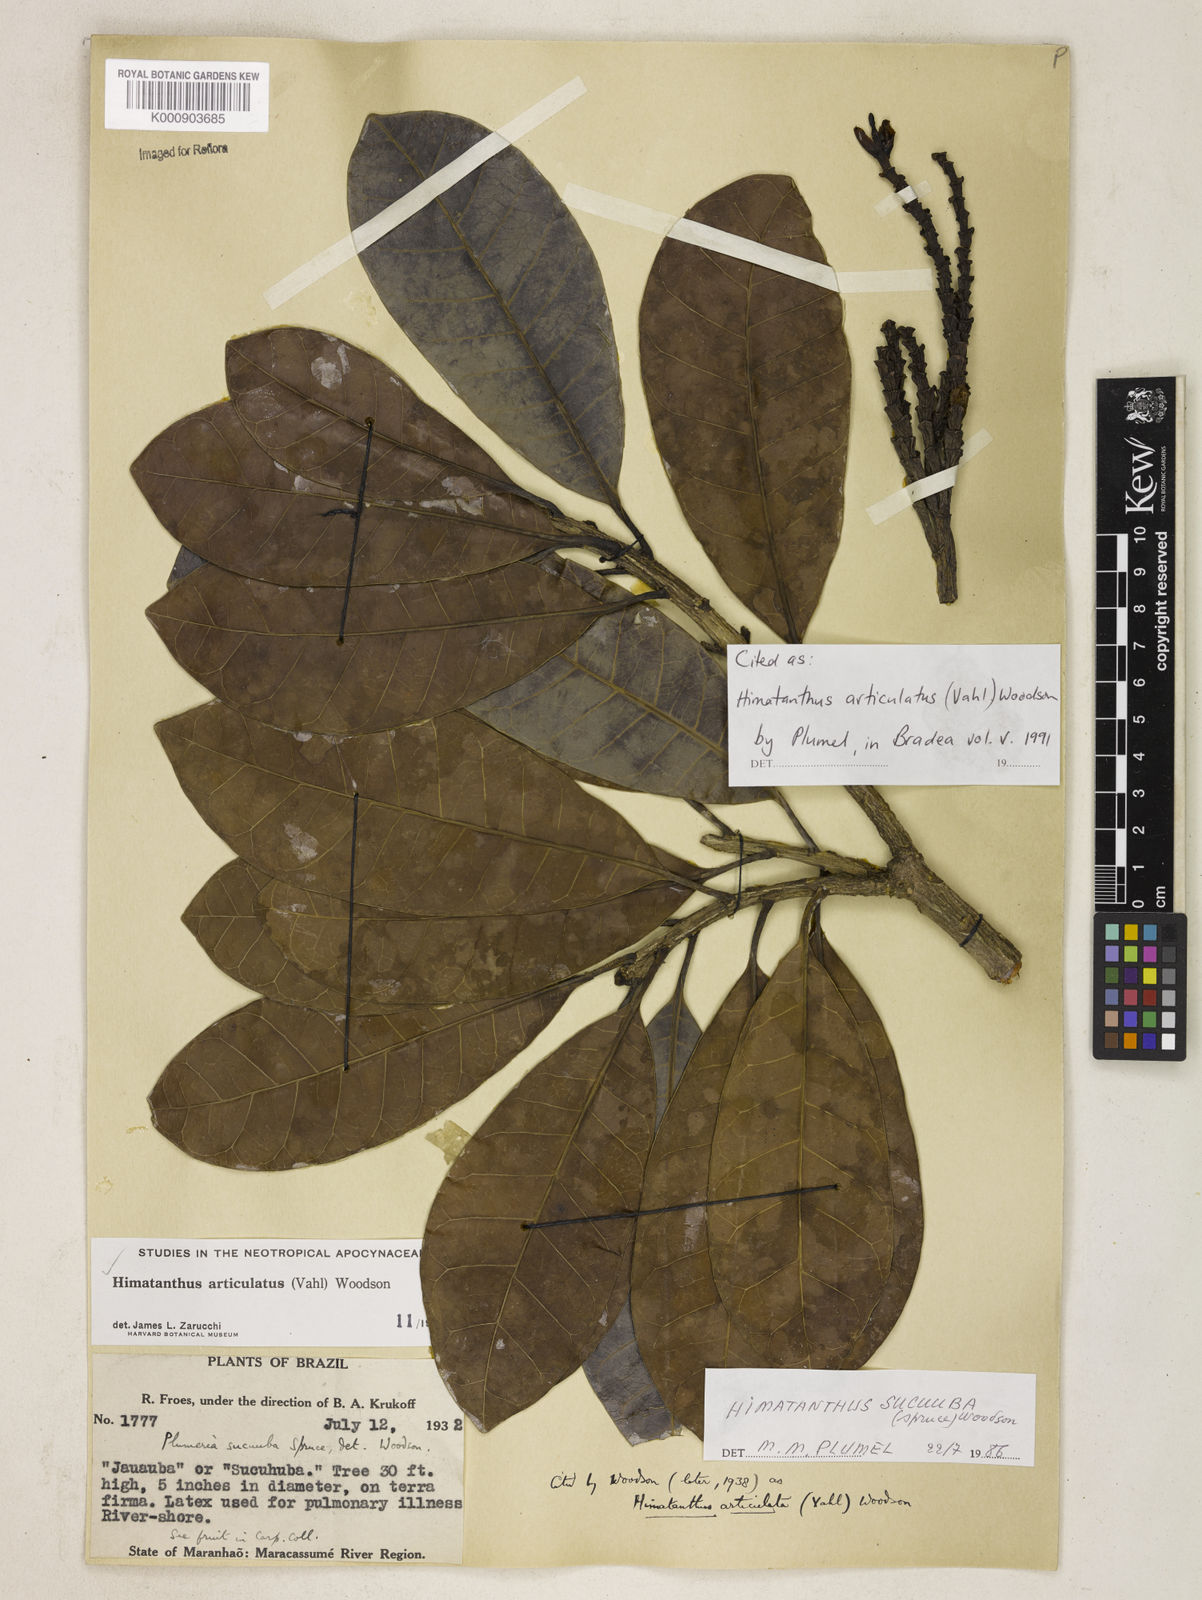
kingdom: Plantae
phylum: Tracheophyta
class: Magnoliopsida
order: Gentianales
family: Apocynaceae
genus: Himatanthus
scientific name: Himatanthus articulatus
